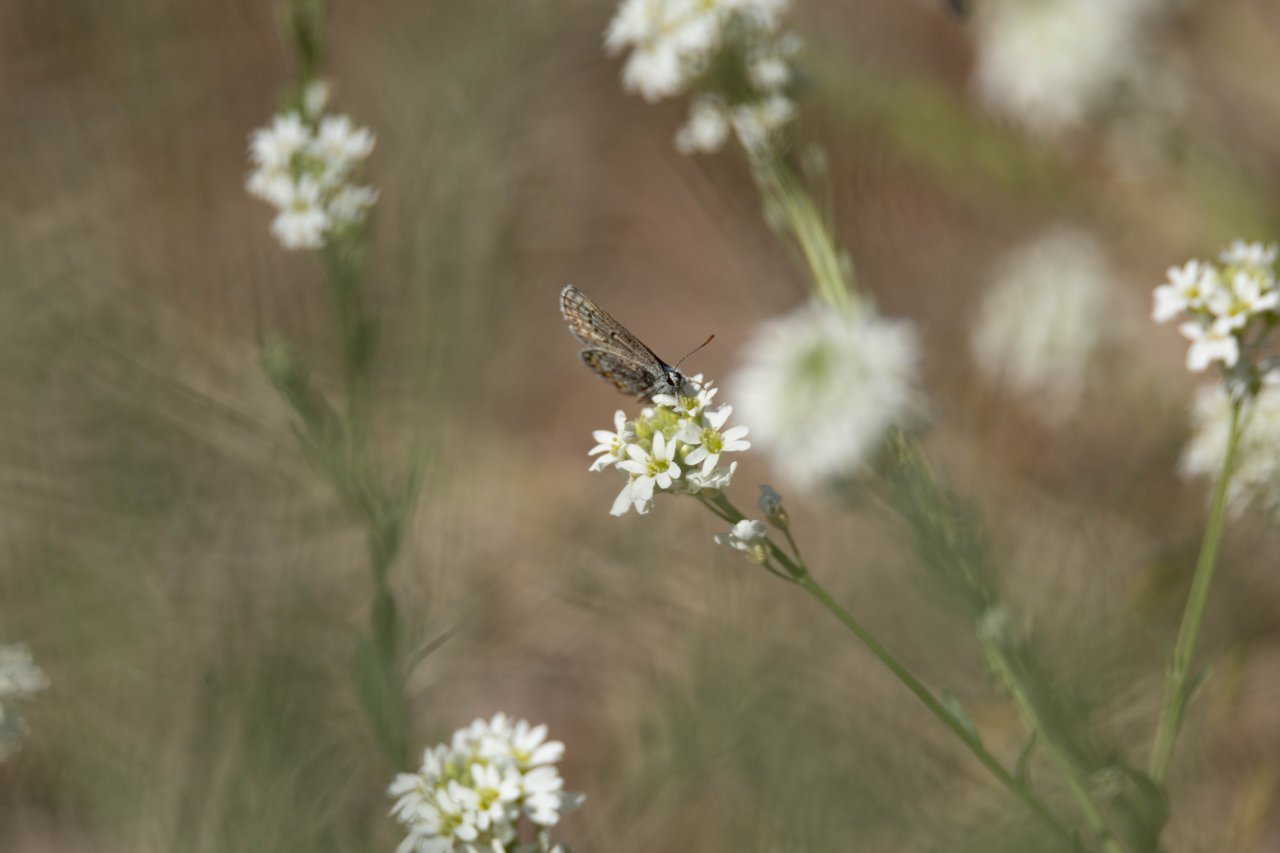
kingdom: Animalia
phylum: Arthropoda
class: Insecta
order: Lepidoptera
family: Lycaenidae
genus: Glaucopsyche
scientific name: Glaucopsyche lygdamus
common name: Silvery Blue
